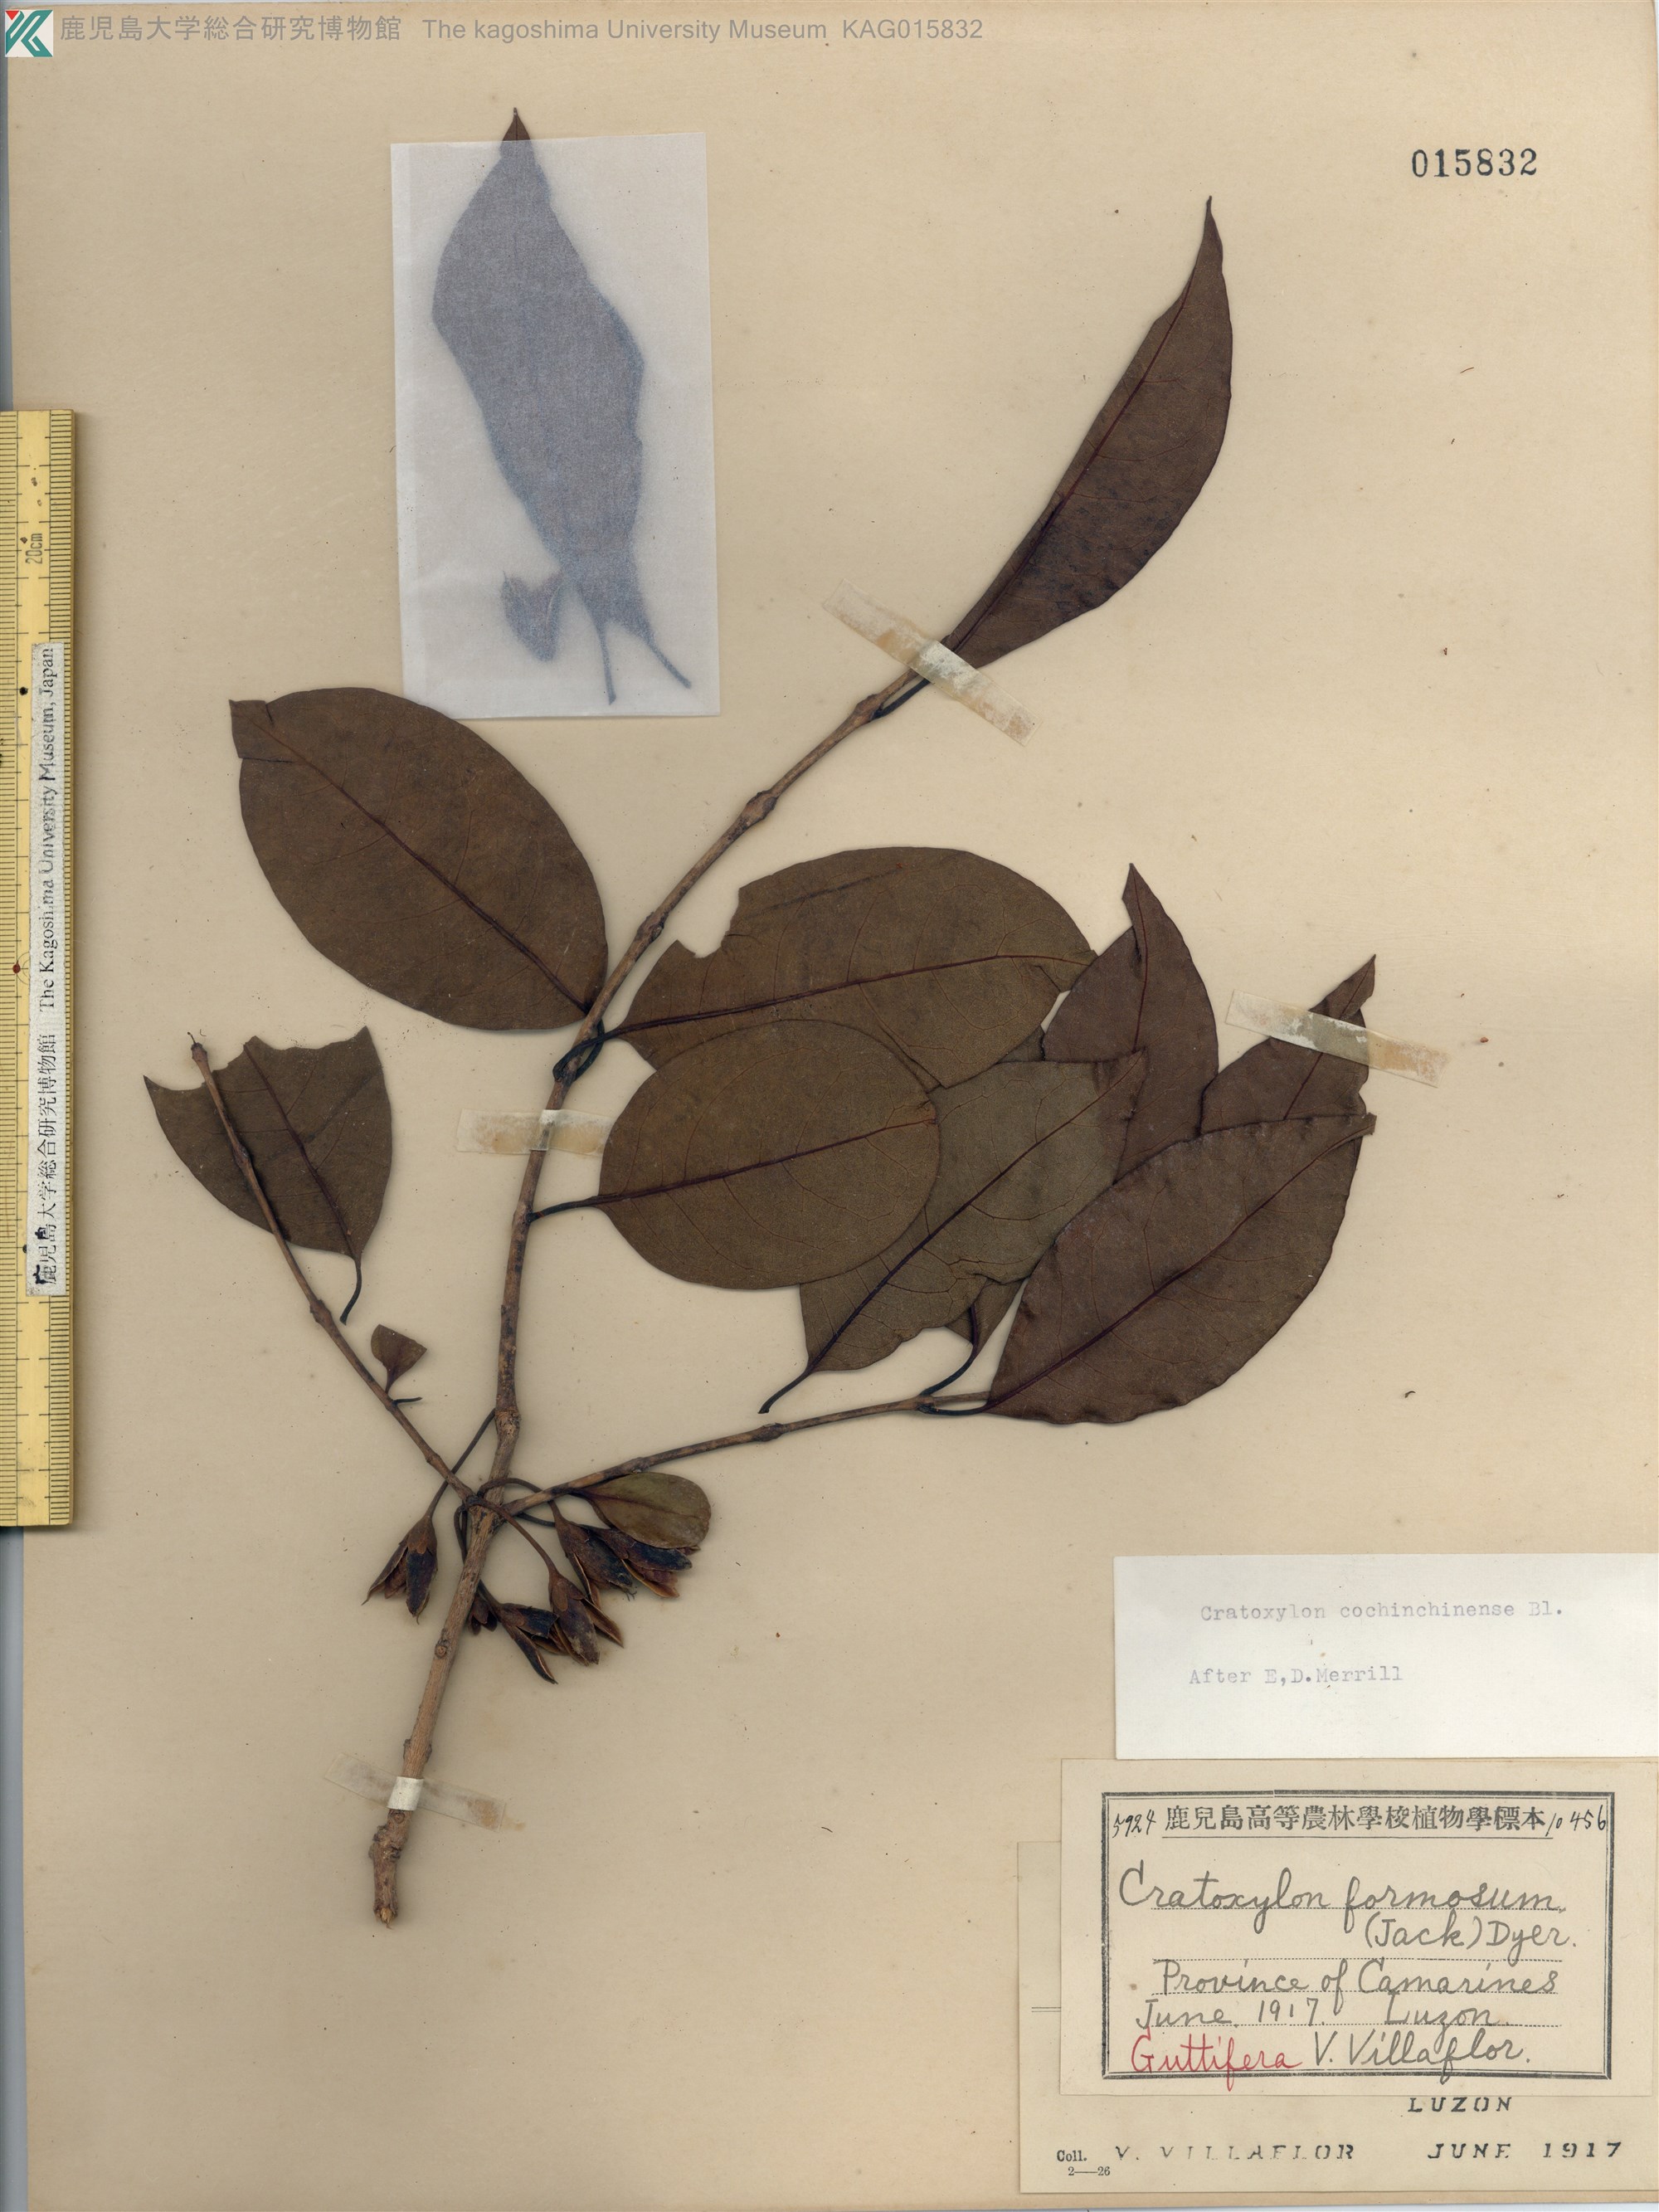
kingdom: Plantae
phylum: Tracheophyta
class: Magnoliopsida
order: Malpighiales
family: Hypericaceae
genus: Cratoxylum
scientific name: Cratoxylum cochinchinense
